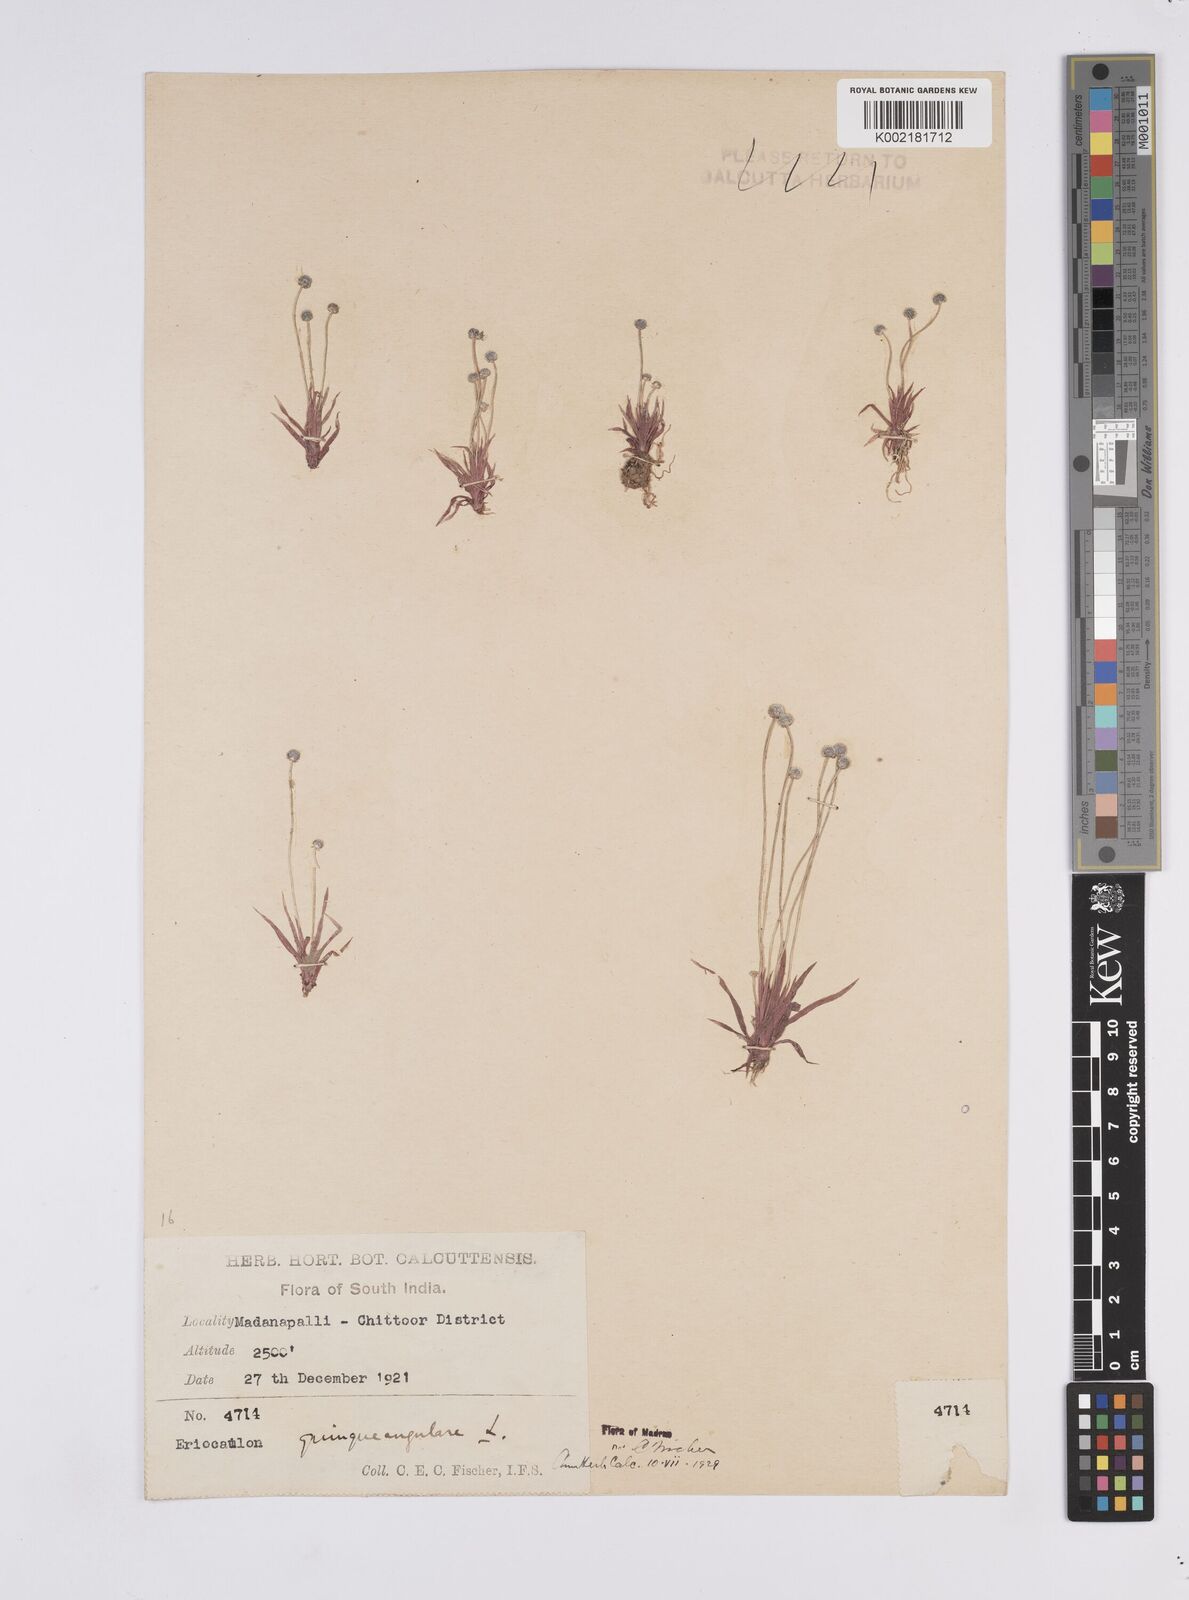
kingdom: Plantae
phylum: Tracheophyta
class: Liliopsida
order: Poales
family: Eriocaulaceae
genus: Eriocaulon
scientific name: Eriocaulon quinquangulare
